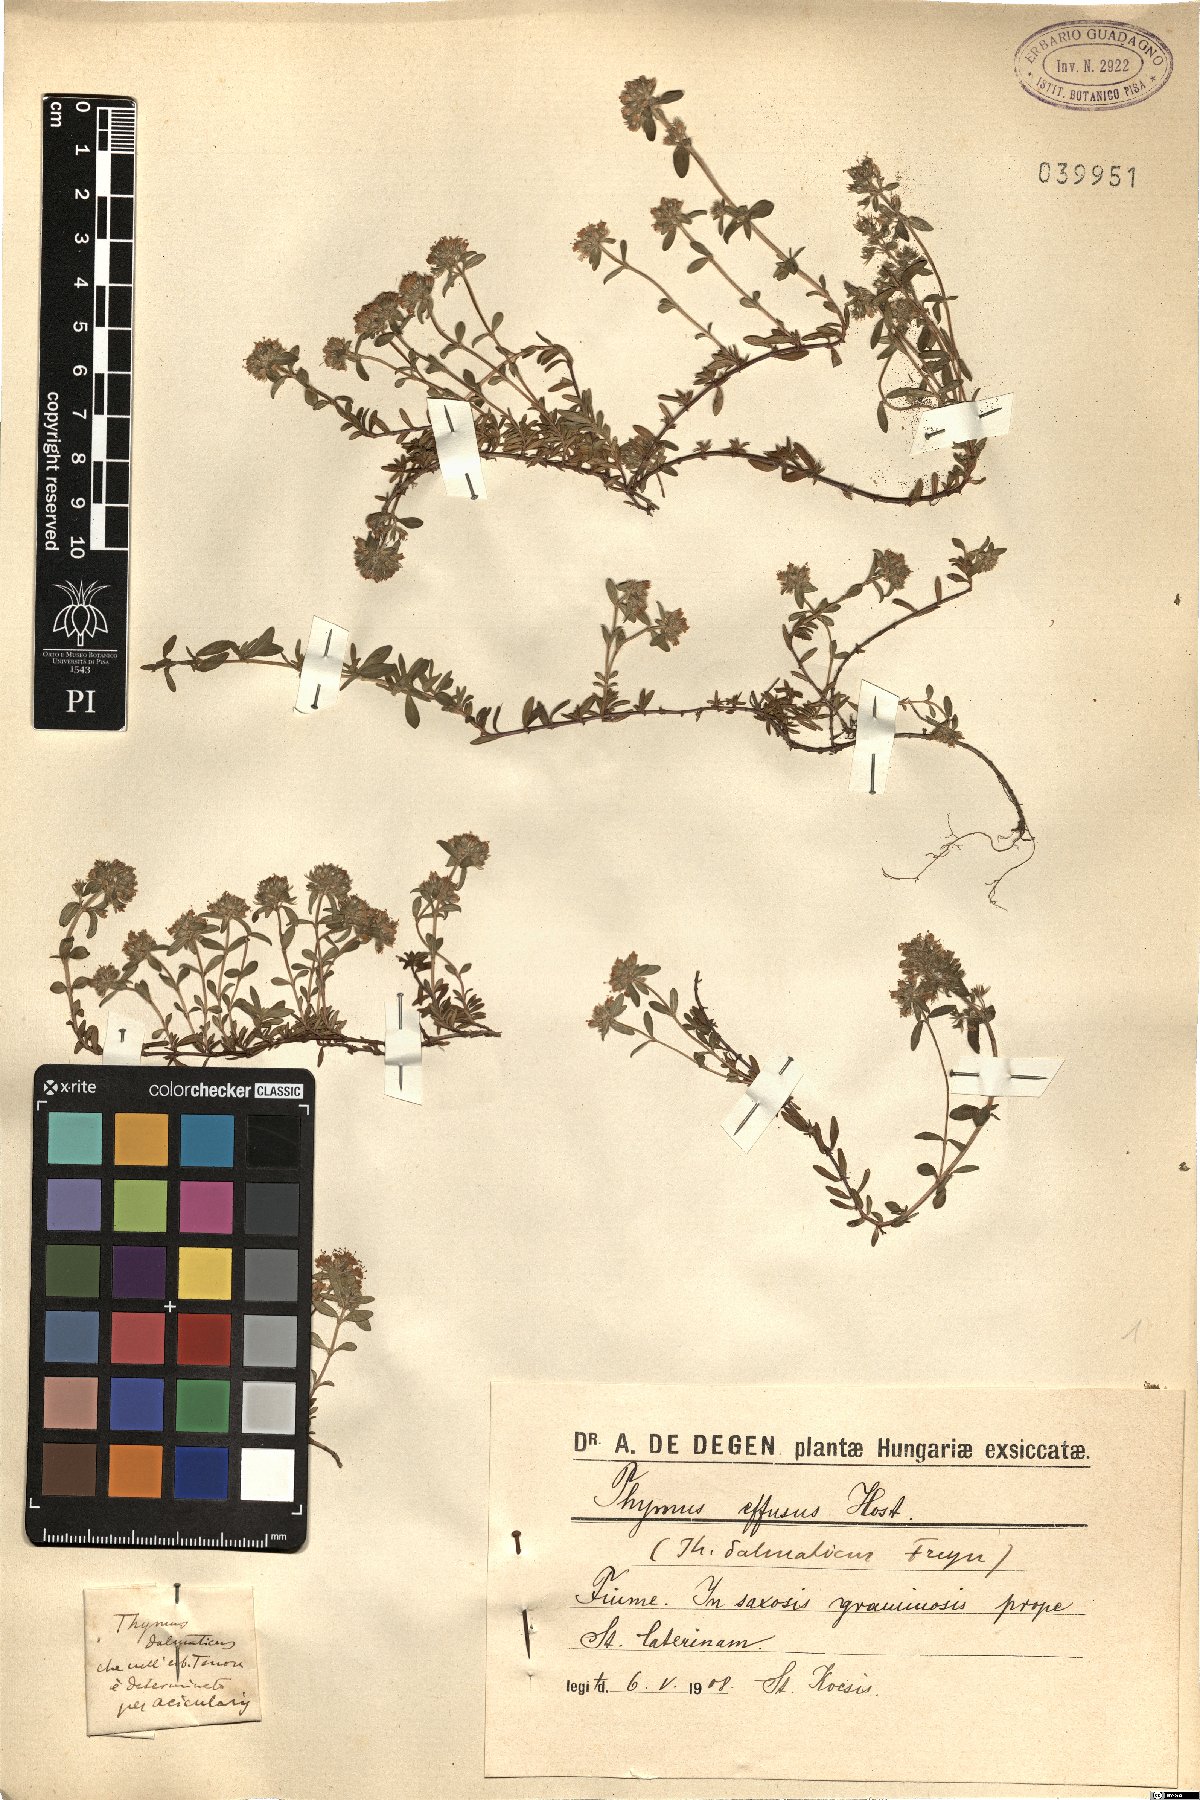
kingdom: Plantae
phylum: Tracheophyta
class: Magnoliopsida
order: Lamiales
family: Lamiaceae
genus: Thymus
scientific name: Thymus longicaulis
